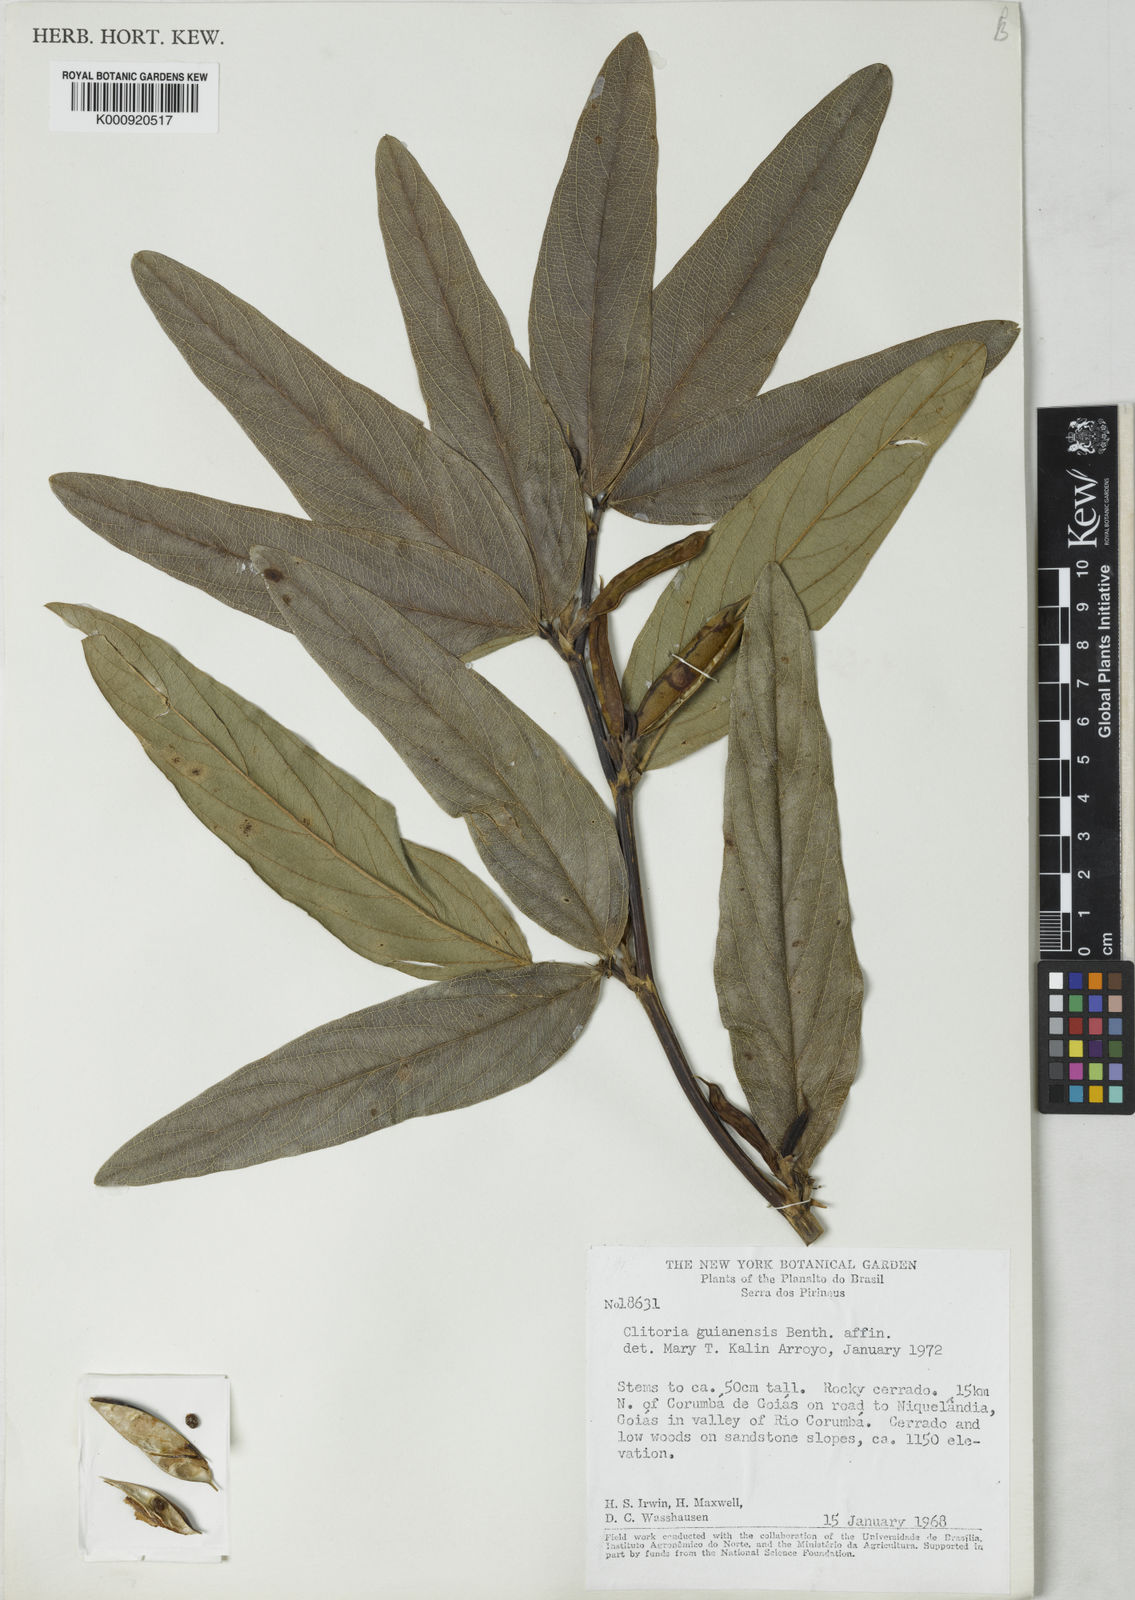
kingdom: Plantae
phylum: Tracheophyta
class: Magnoliopsida
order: Fabales
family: Fabaceae
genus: Clitoria
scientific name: Clitoria guianensis
